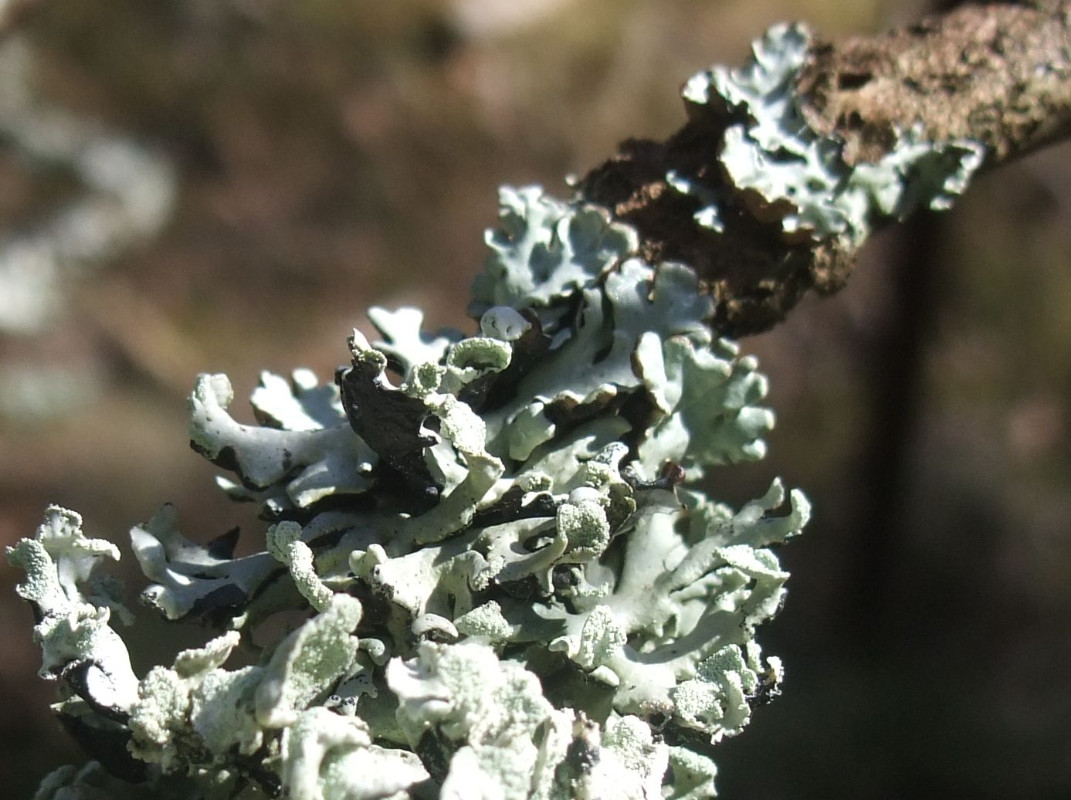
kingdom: Fungi
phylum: Ascomycota
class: Lecanoromycetes
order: Lecanorales
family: Parmeliaceae
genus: Hypogymnia
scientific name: Hypogymnia physodes
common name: almindelig kvistlav
